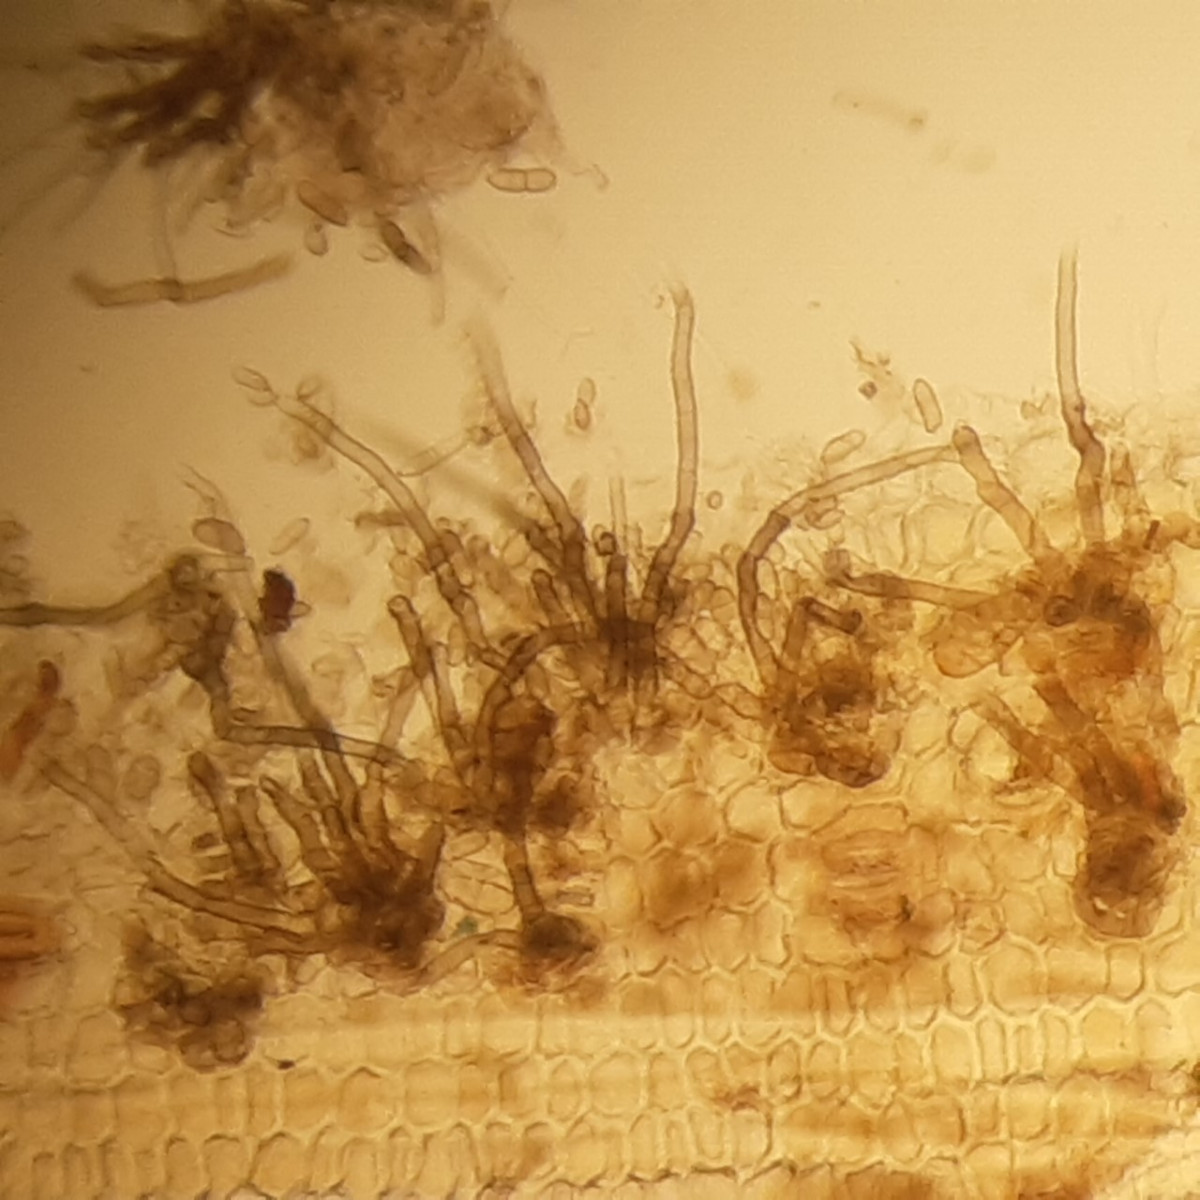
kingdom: Fungi
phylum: Ascomycota
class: Dothideomycetes
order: Capnodiales
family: Cladosporiaceae
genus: Cladosporium
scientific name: Cladosporium
